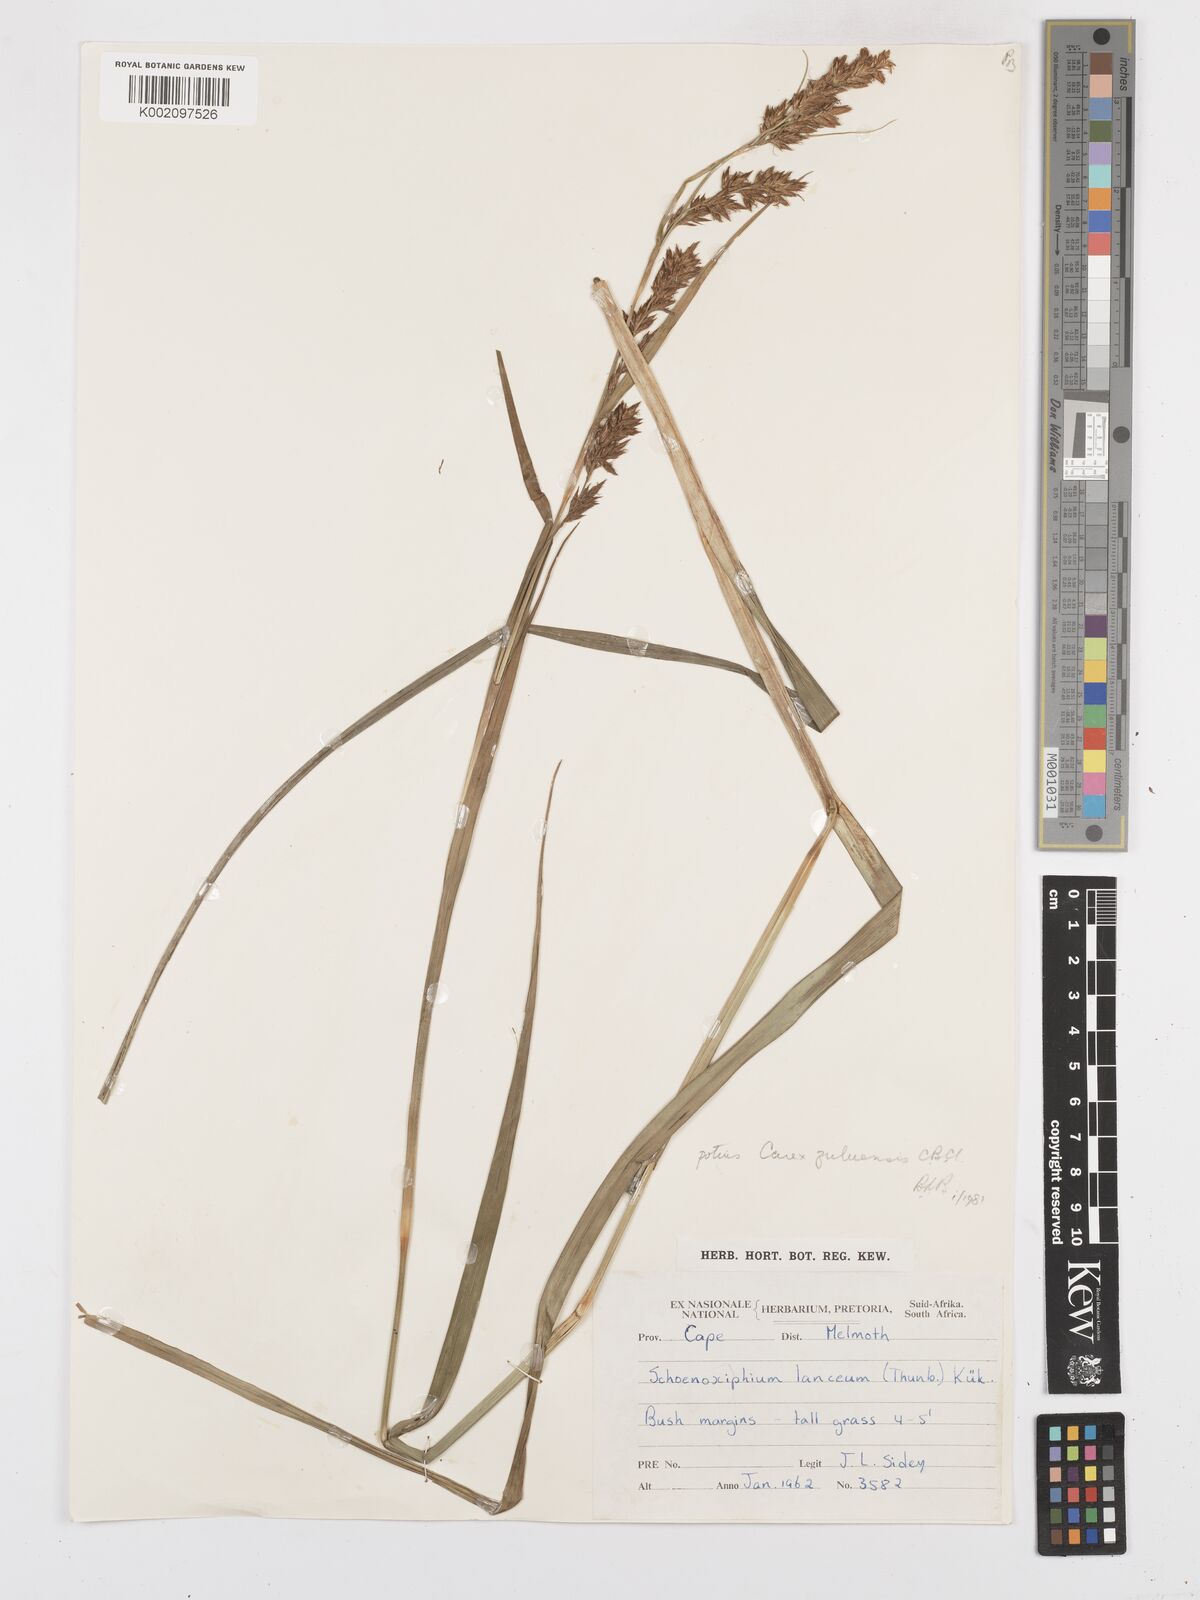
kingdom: Plantae
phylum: Tracheophyta
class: Liliopsida
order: Poales
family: Cyperaceae
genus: Carex
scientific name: Carex steudneri
